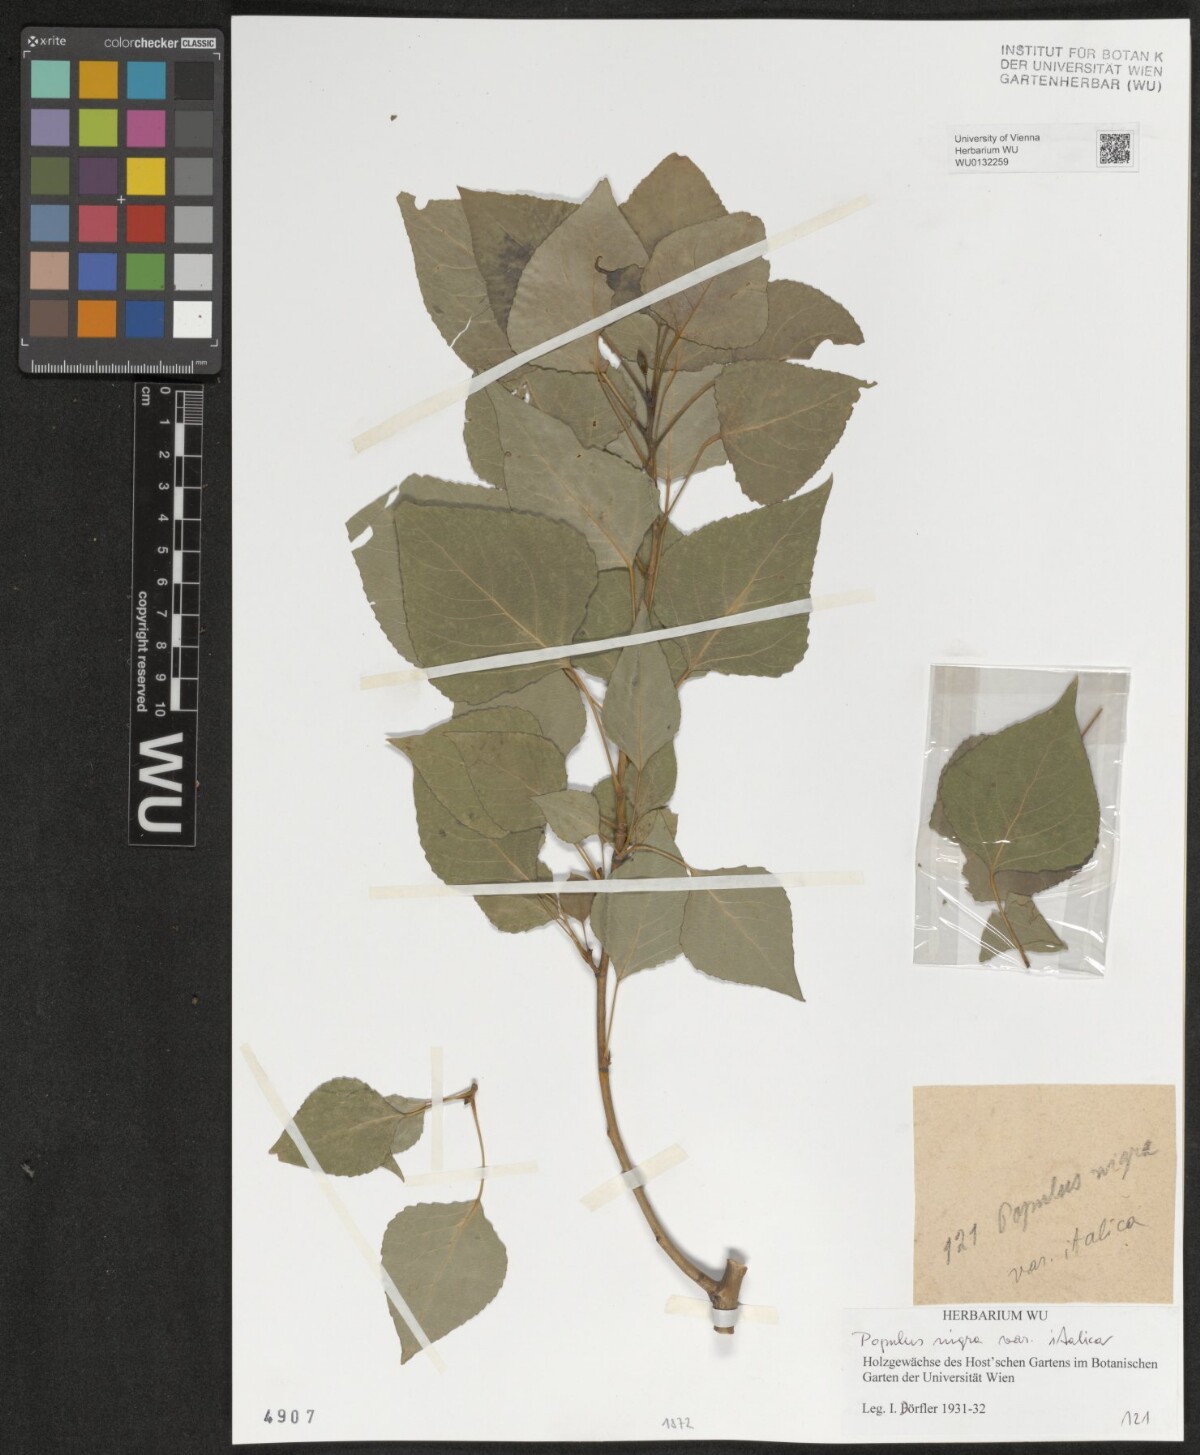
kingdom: Plantae
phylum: Tracheophyta
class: Magnoliopsida
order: Malpighiales
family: Salicaceae
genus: Populus
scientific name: Populus nigra
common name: Black poplar
